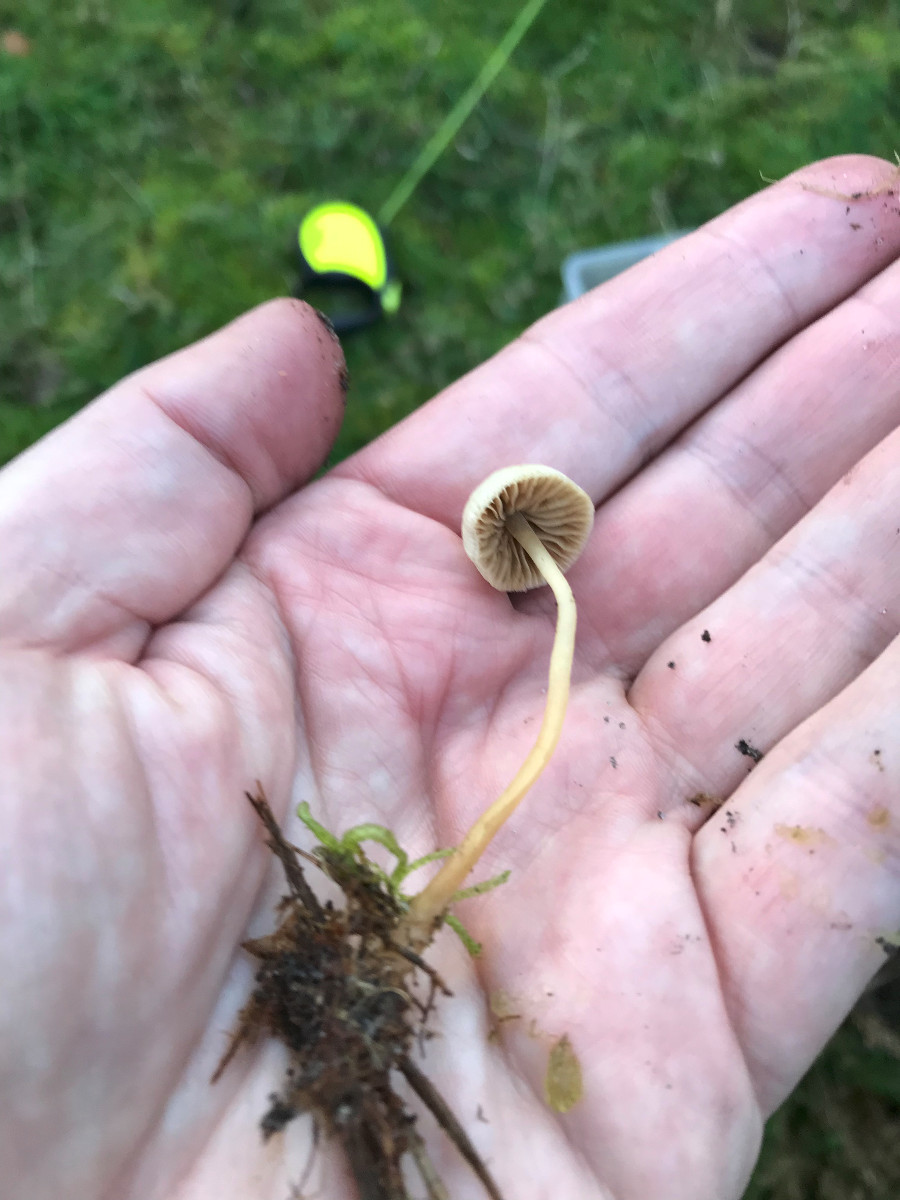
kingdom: Fungi
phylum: Basidiomycota
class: Agaricomycetes
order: Agaricales
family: Strophariaceae
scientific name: Strophariaceae
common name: bredbladfamilien
